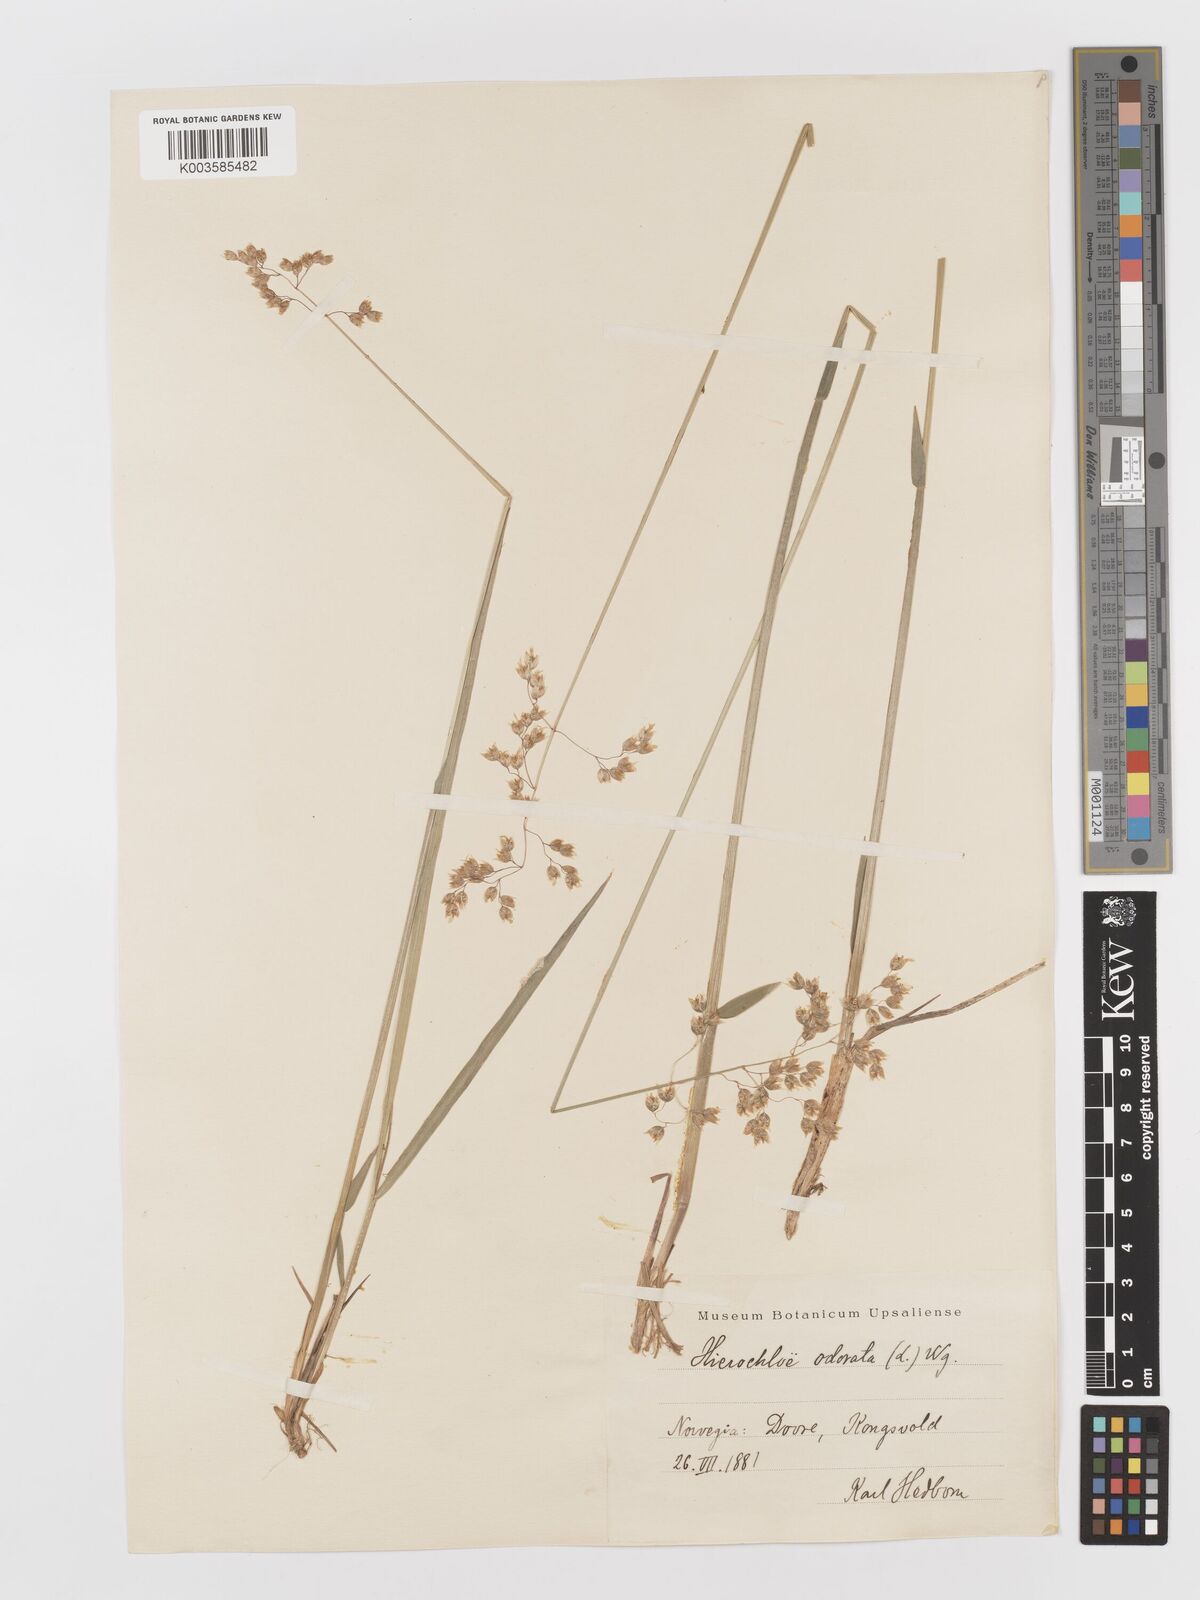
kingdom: Plantae
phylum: Tracheophyta
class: Liliopsida
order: Poales
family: Poaceae
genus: Anthoxanthum
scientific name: Anthoxanthum nitens
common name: Holy grass
